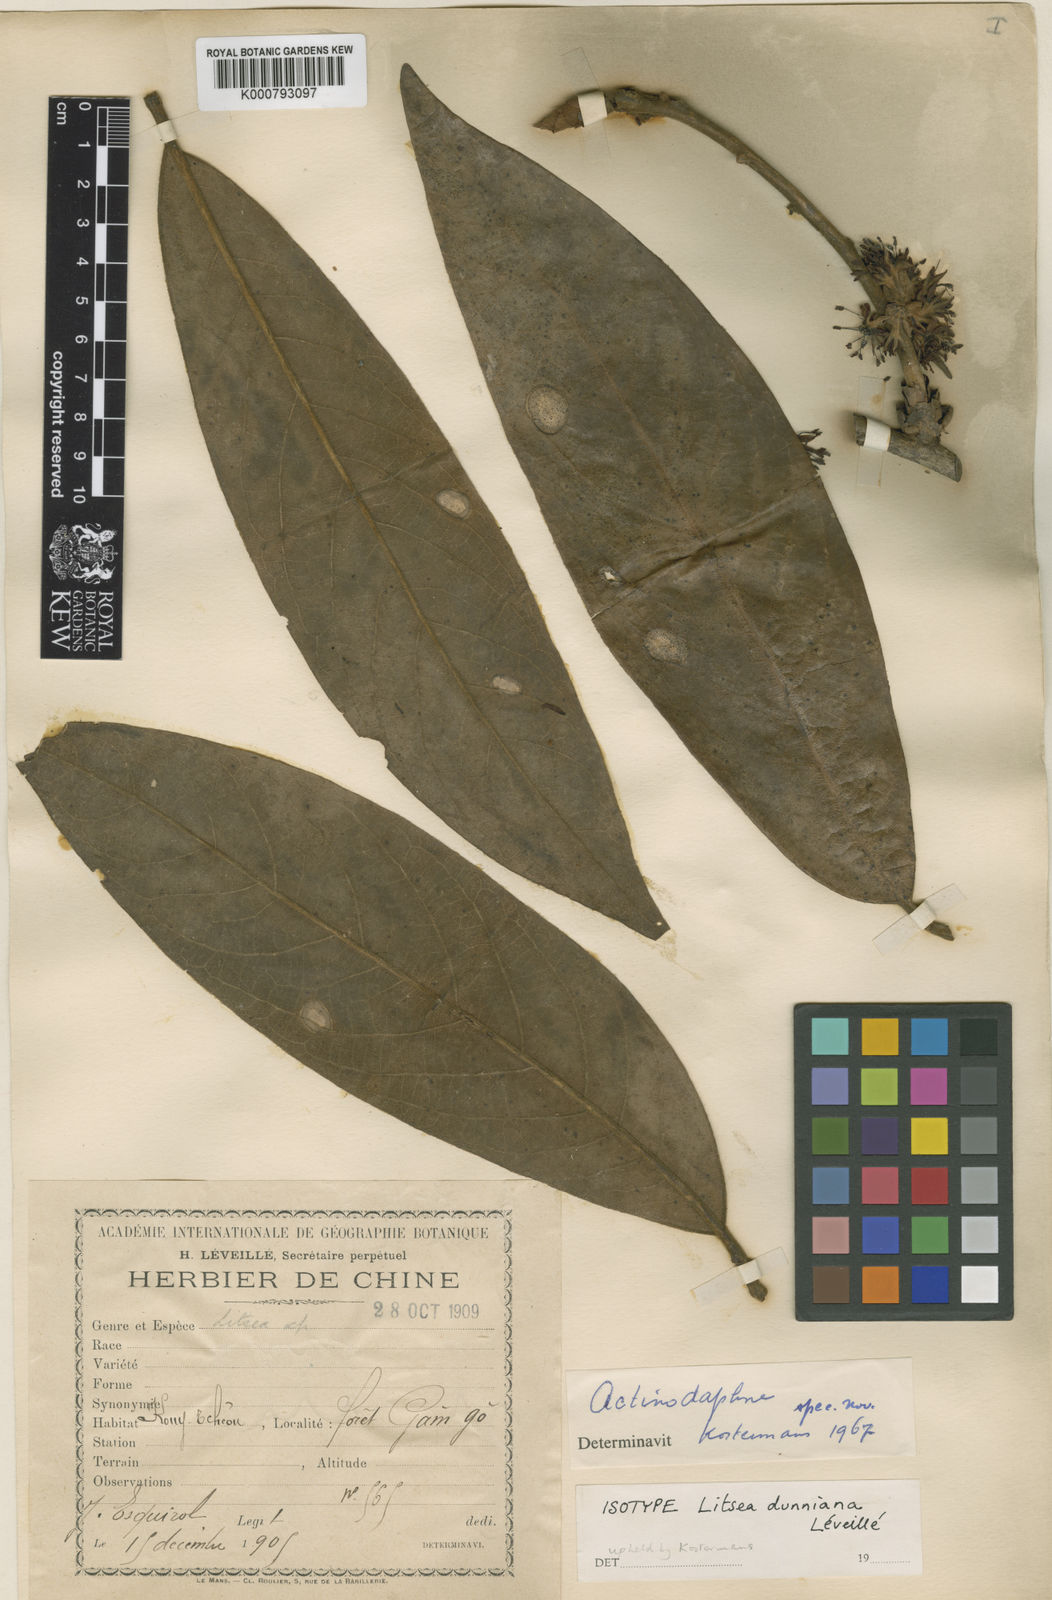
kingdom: Plantae
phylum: Tracheophyta
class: Magnoliopsida
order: Laurales
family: Lauraceae
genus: Litsea
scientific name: Litsea
